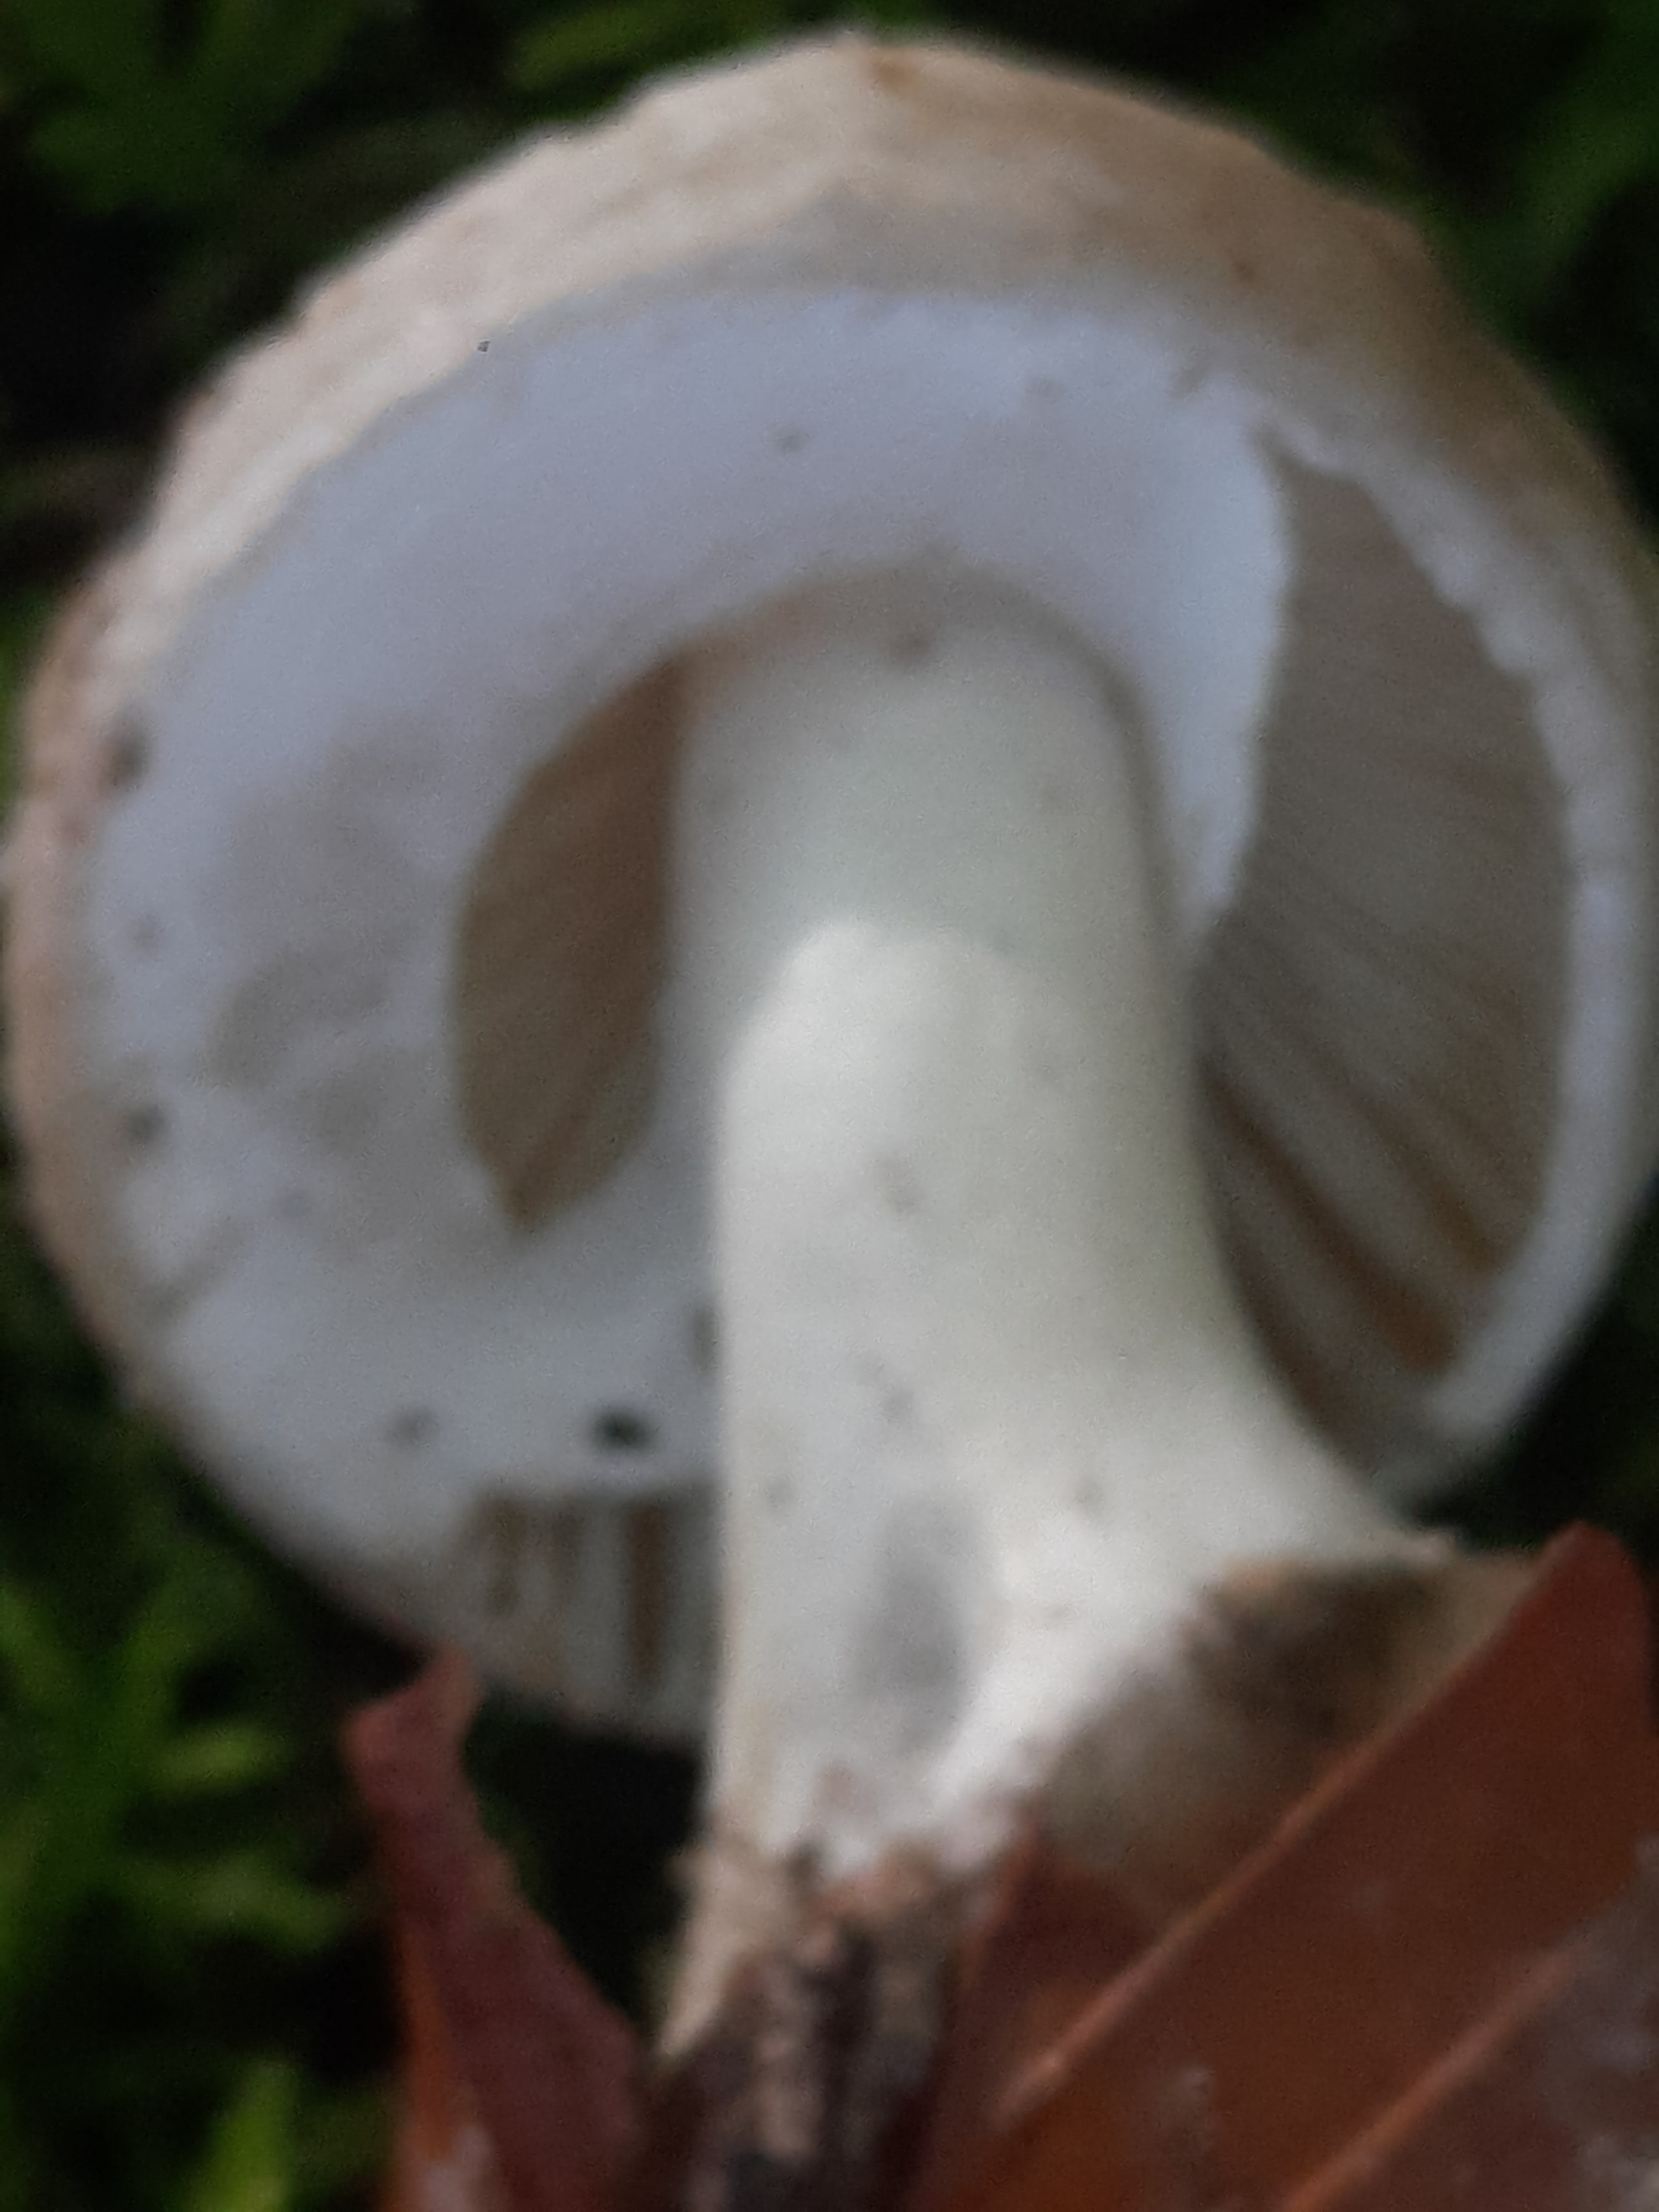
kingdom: Fungi
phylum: Basidiomycota
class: Agaricomycetes
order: Agaricales
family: Amanitaceae
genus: Amanita
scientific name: Amanita citrina
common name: kugleknoldet fluesvamp
